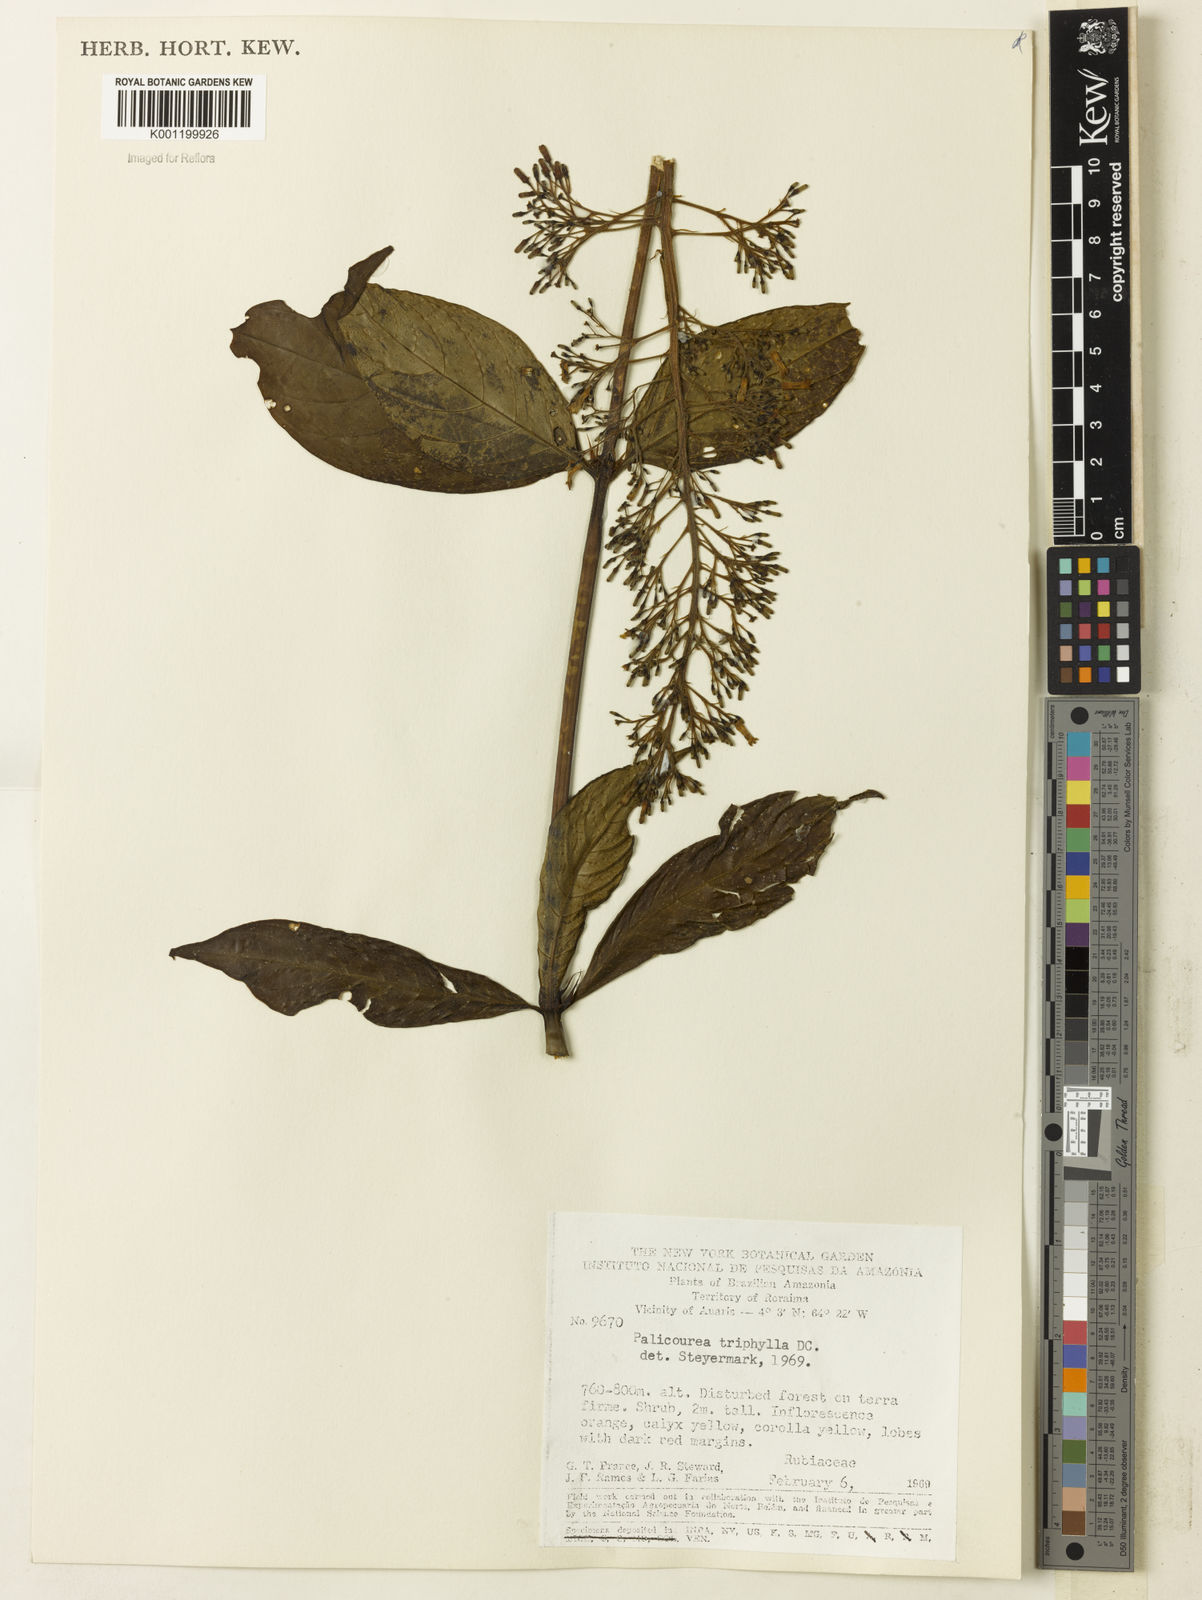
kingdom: Plantae
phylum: Tracheophyta
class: Magnoliopsida
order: Gentianales
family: Rubiaceae
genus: Palicourea
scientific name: Palicourea triphylla
